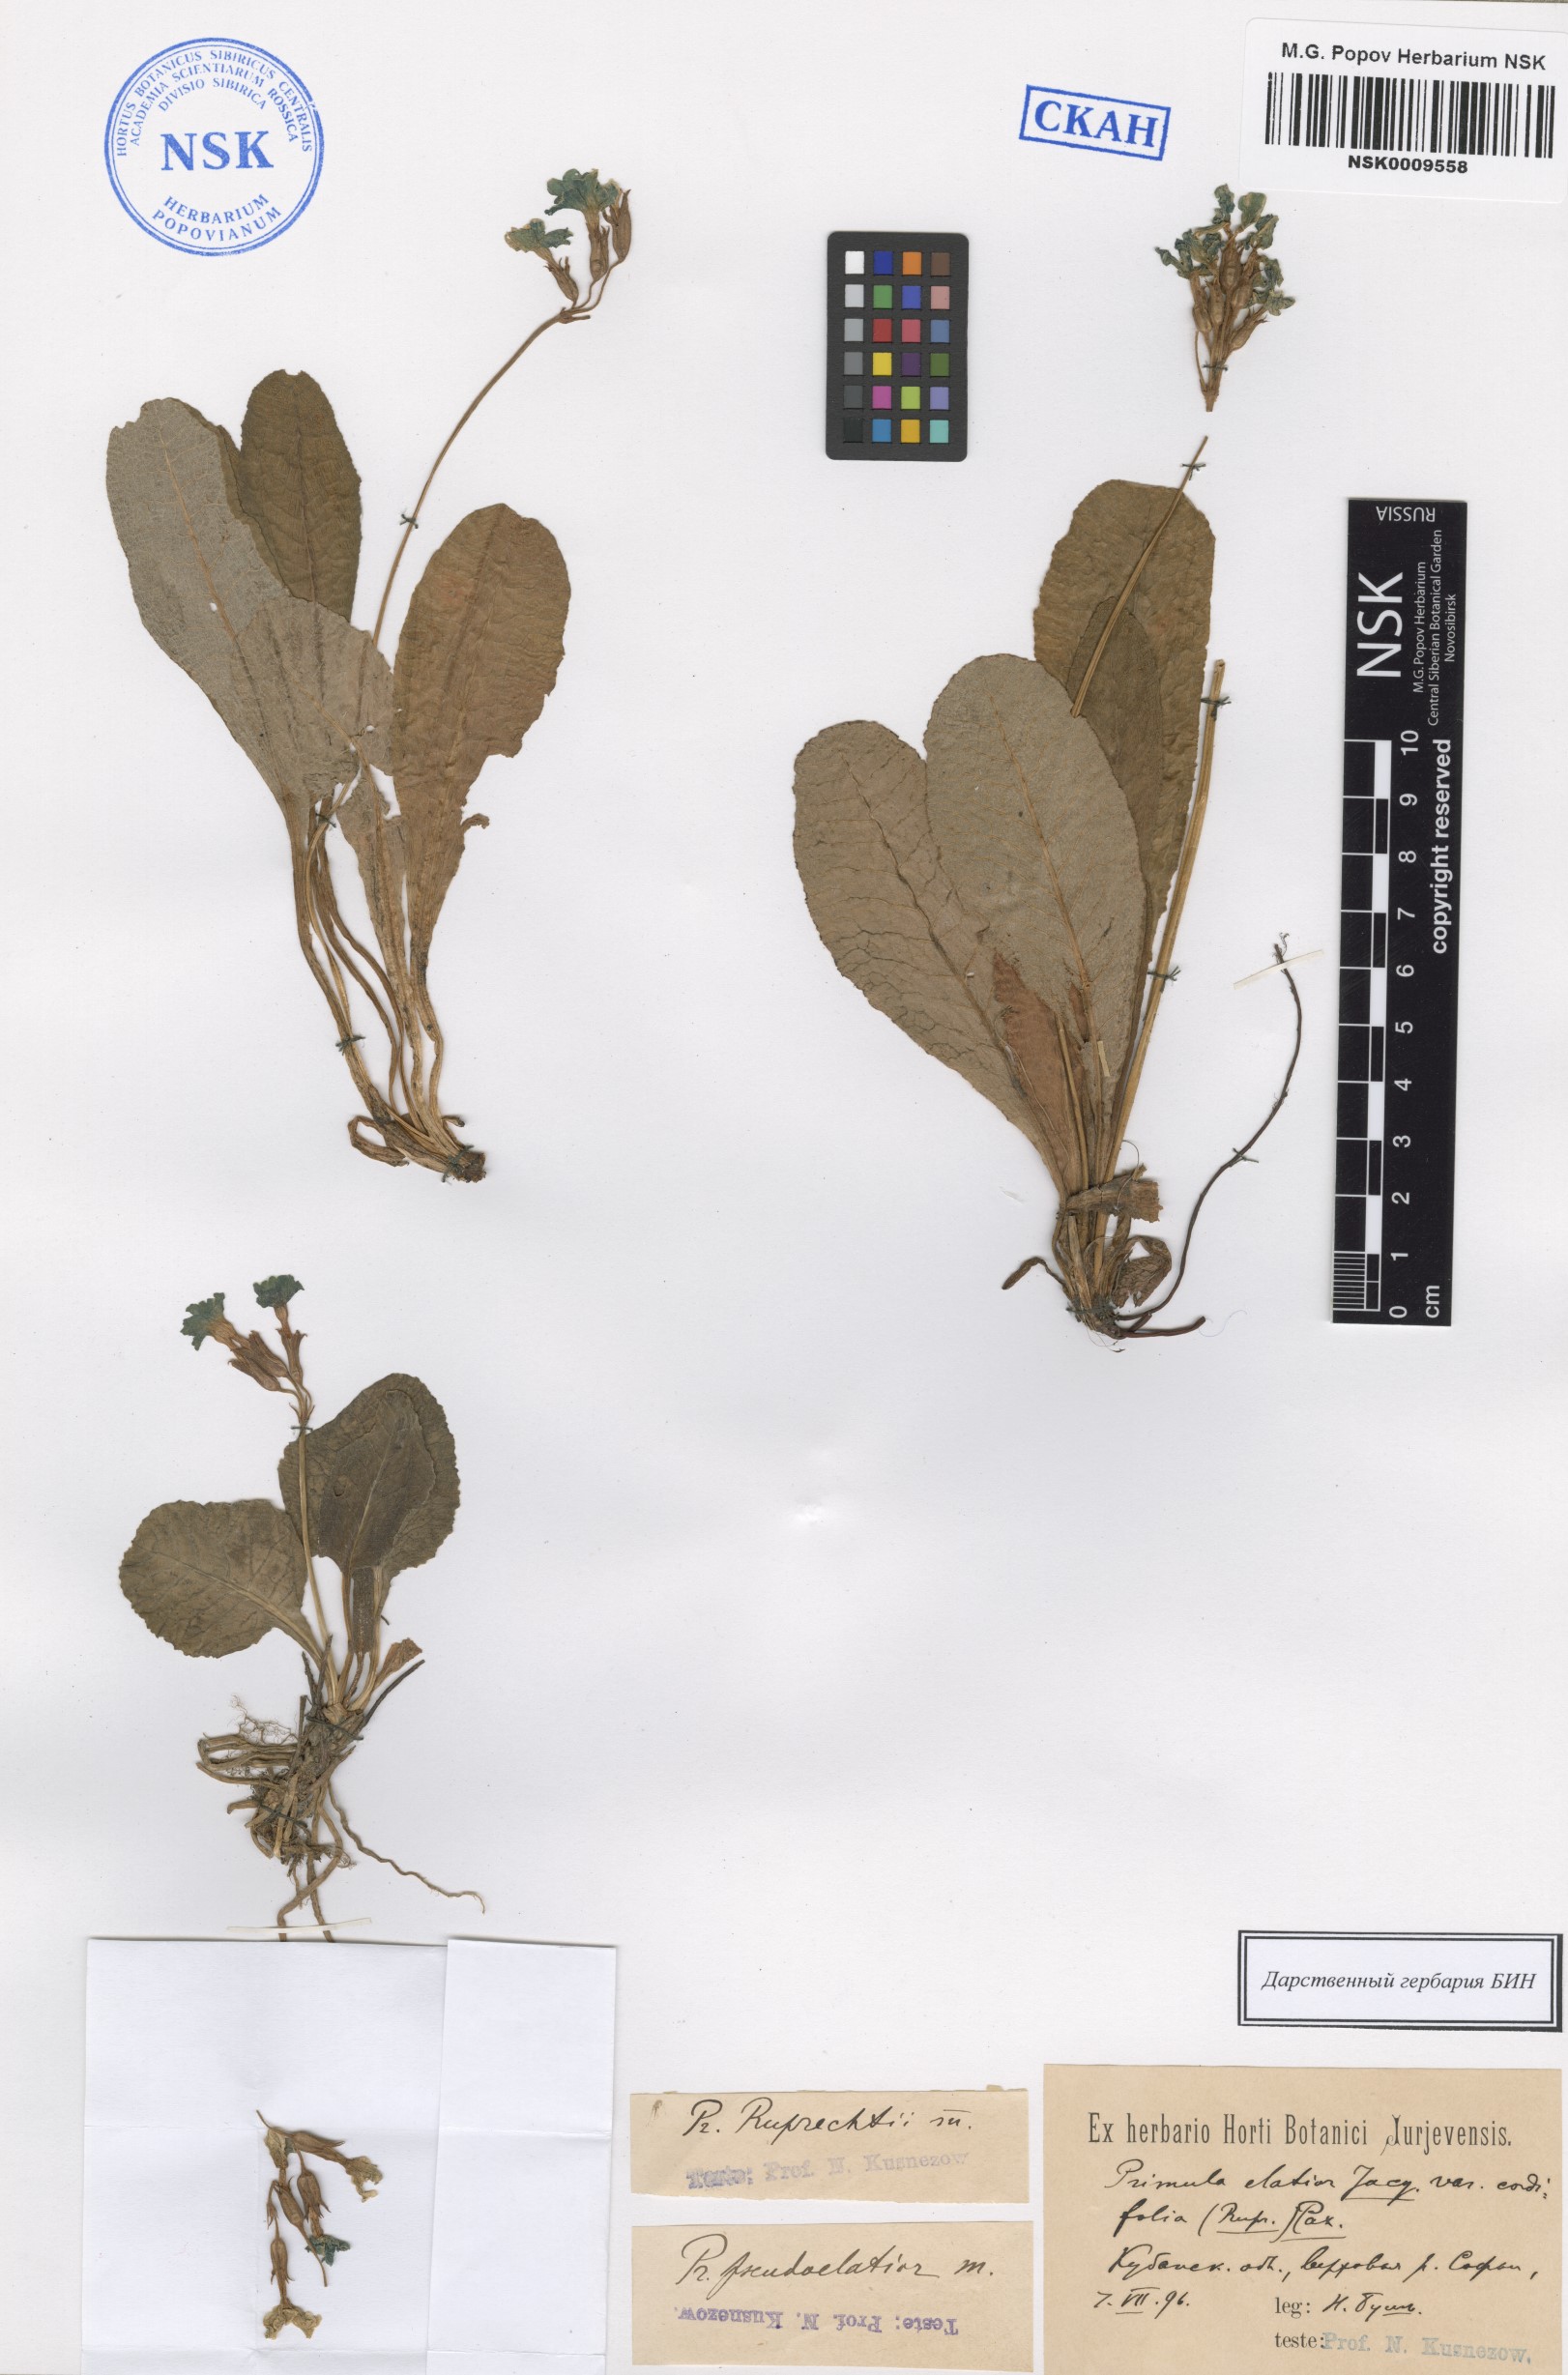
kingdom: Plantae
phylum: Tracheophyta
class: Magnoliopsida
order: Ericales
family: Primulaceae
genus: Primula
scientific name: Primula ruprechtii
